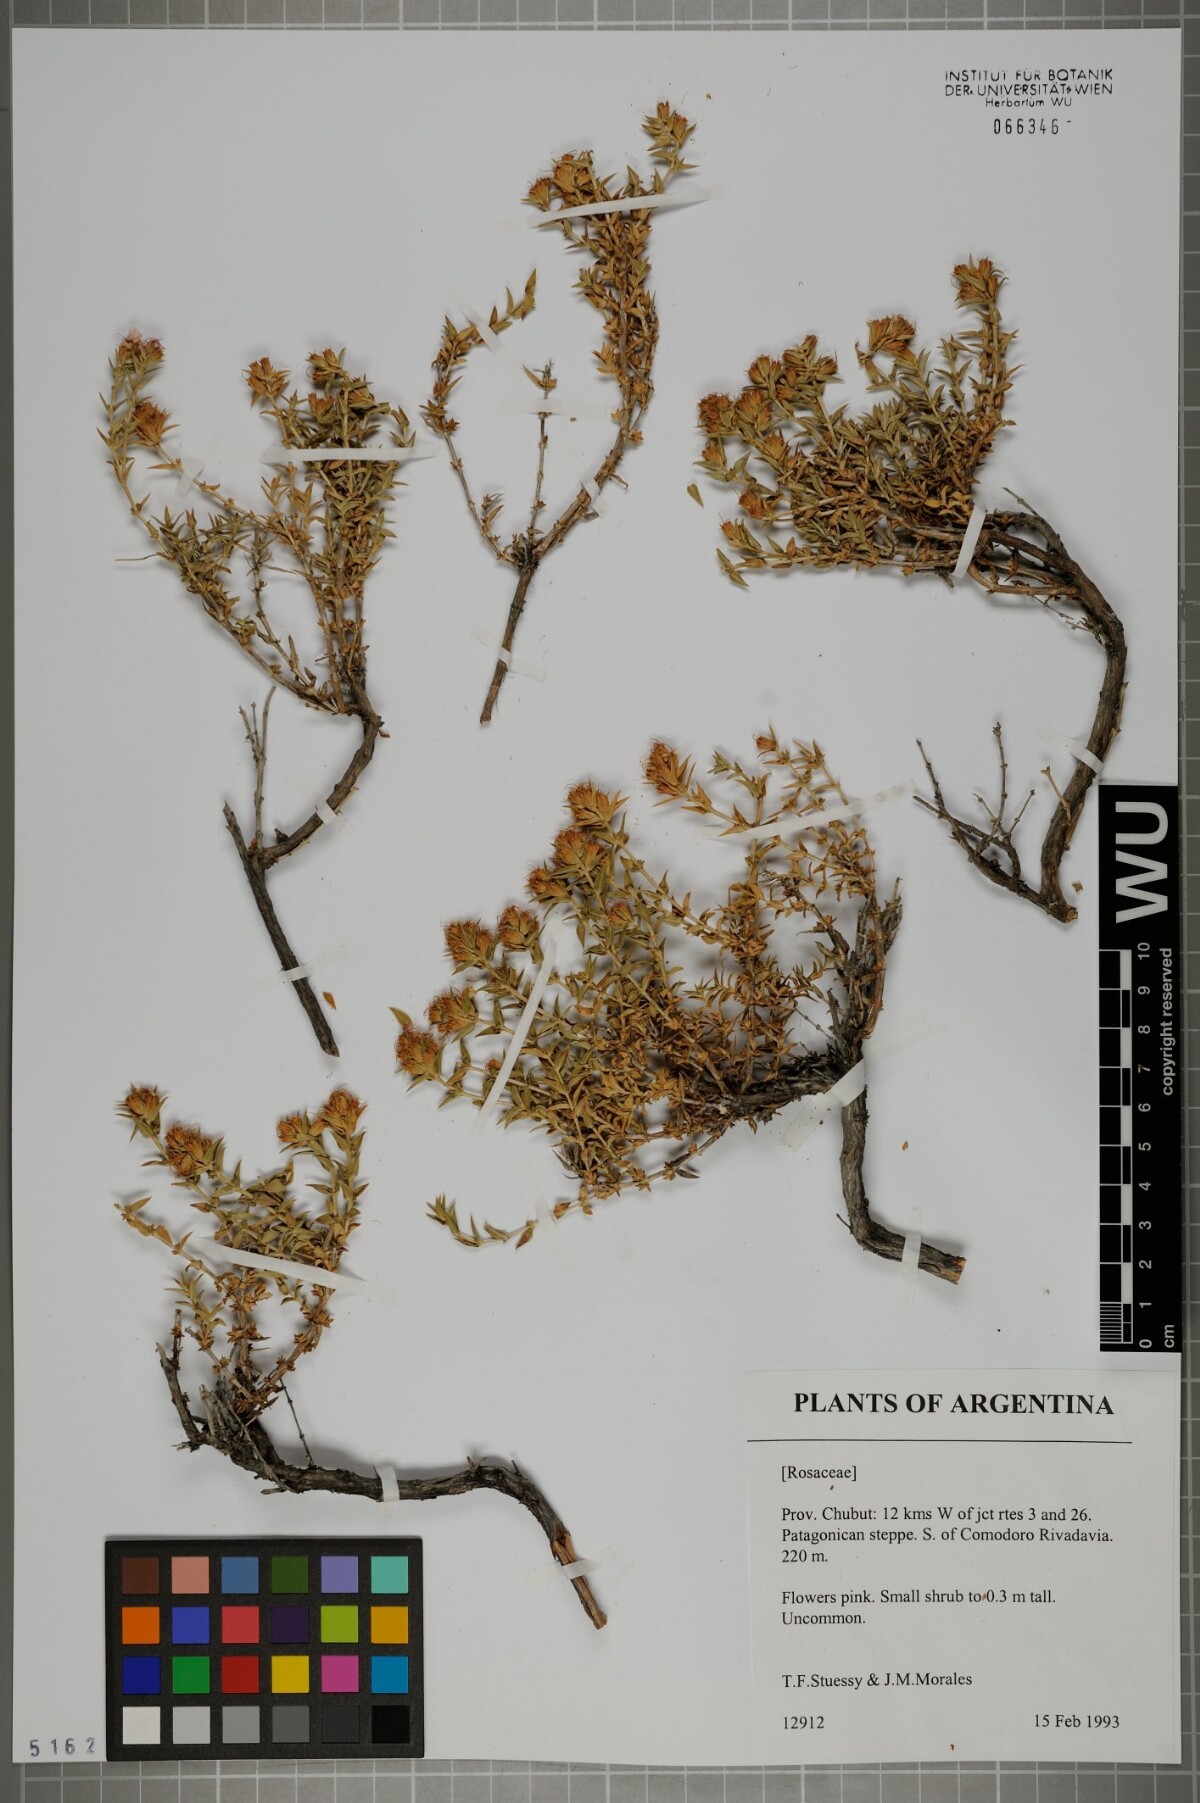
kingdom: Plantae
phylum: Tracheophyta
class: Magnoliopsida
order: Rosales
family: Rosaceae
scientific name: Rosaceae
